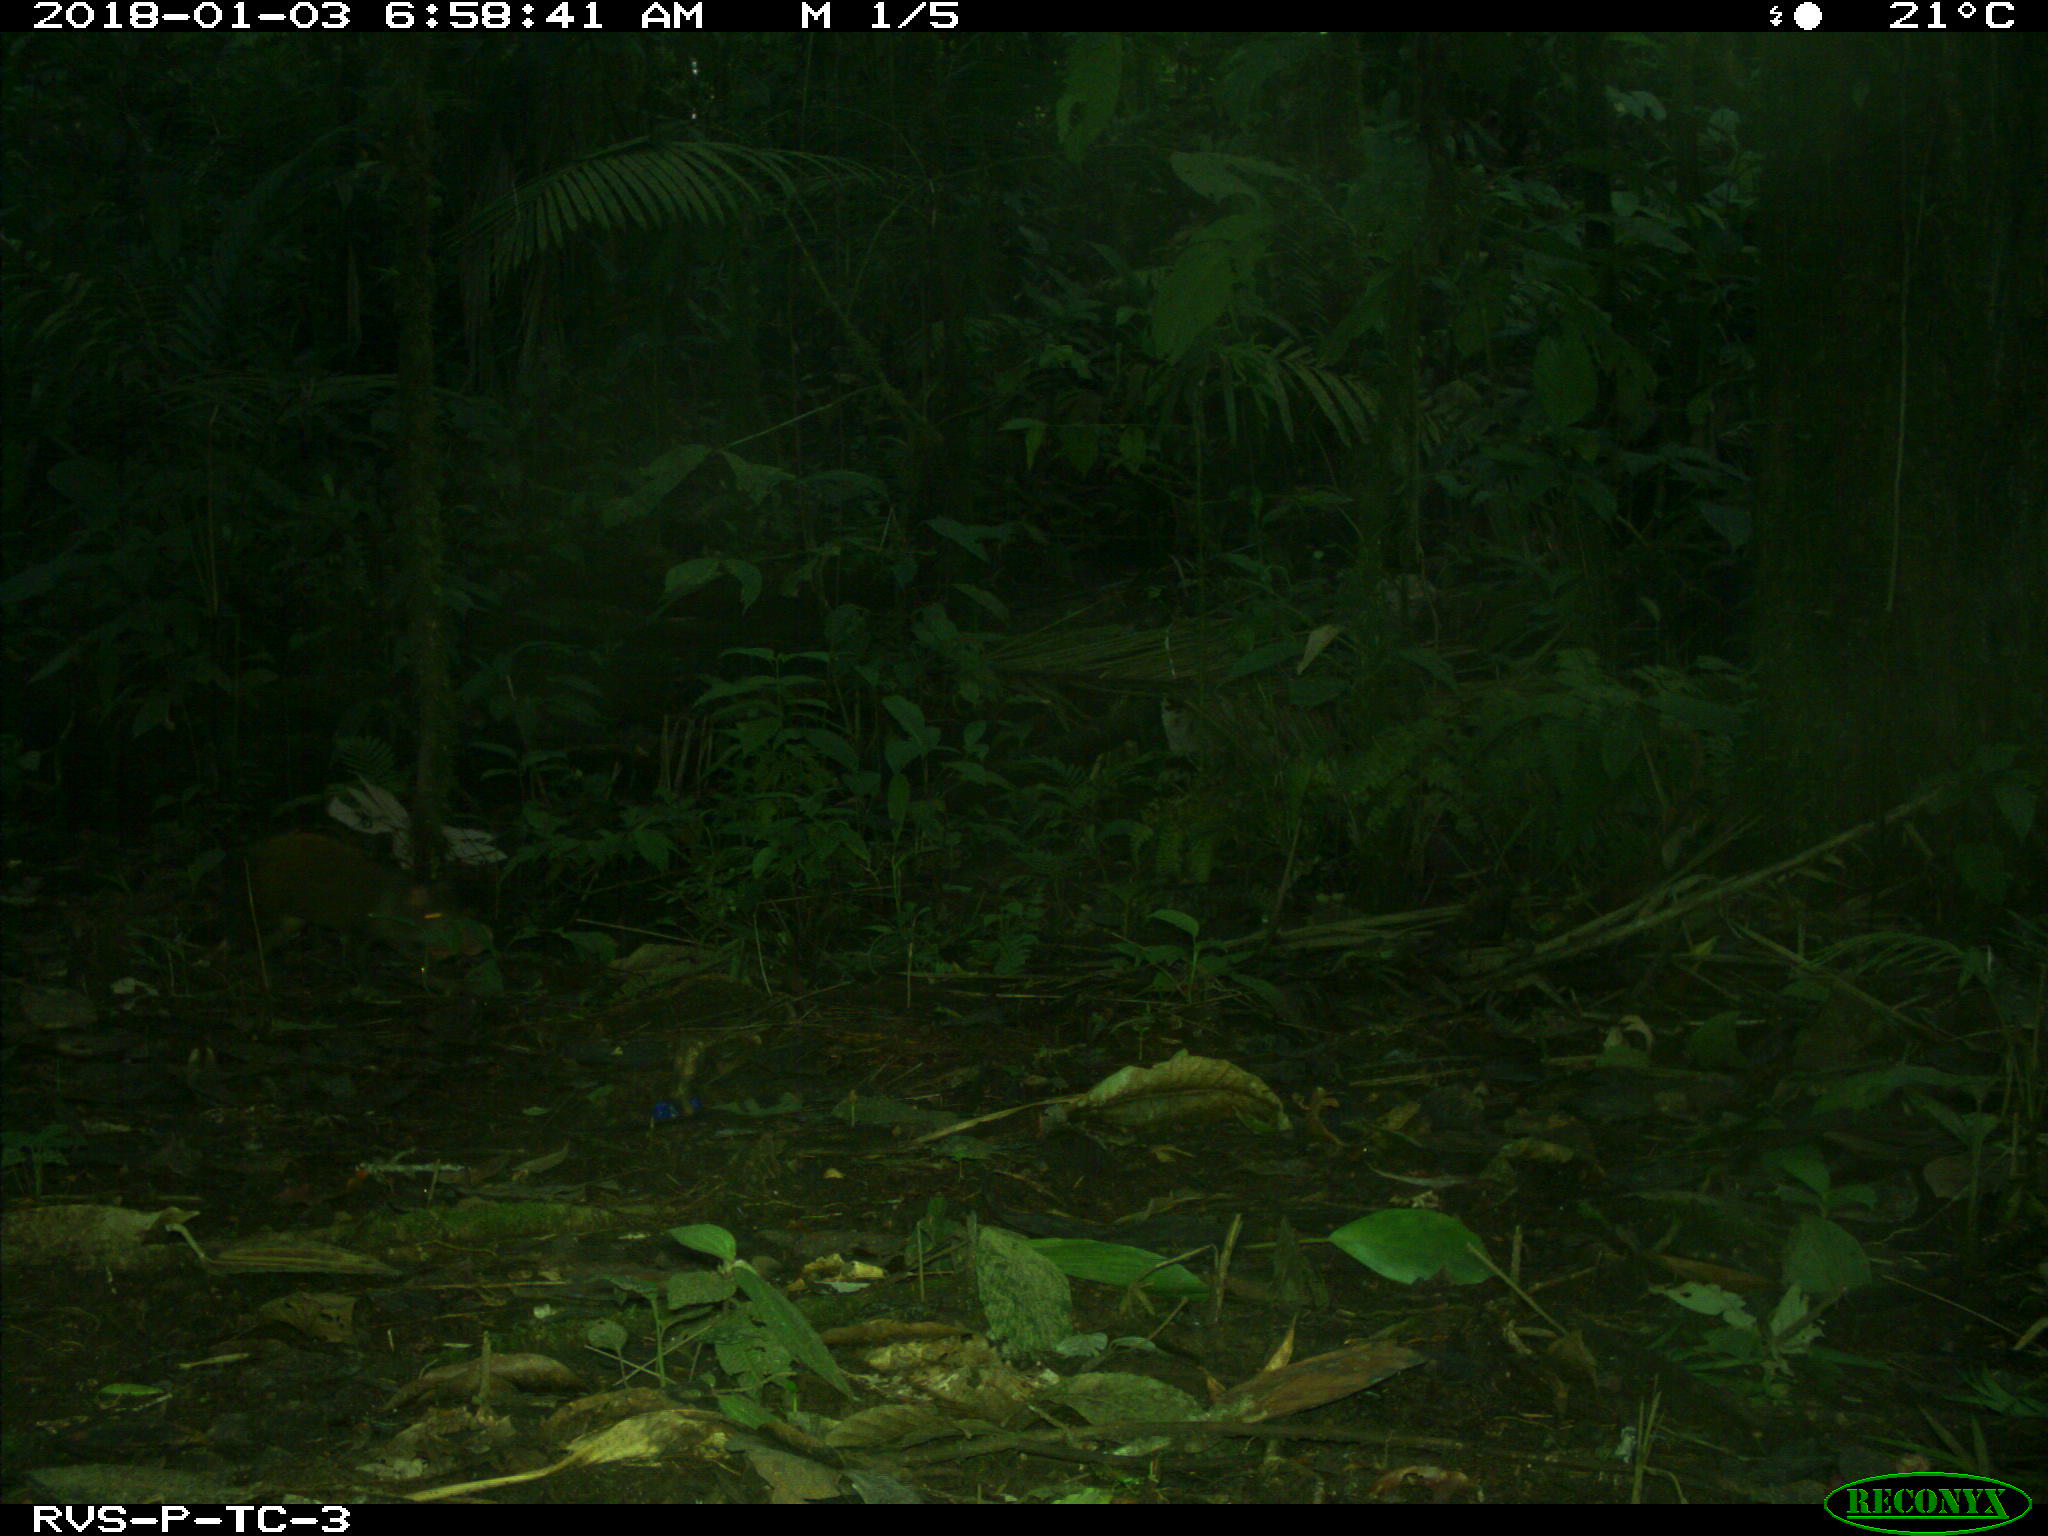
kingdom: Animalia
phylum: Chordata
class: Mammalia
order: Rodentia
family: Dasyproctidae
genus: Dasyprocta
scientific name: Dasyprocta punctata
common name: Central american agouti
